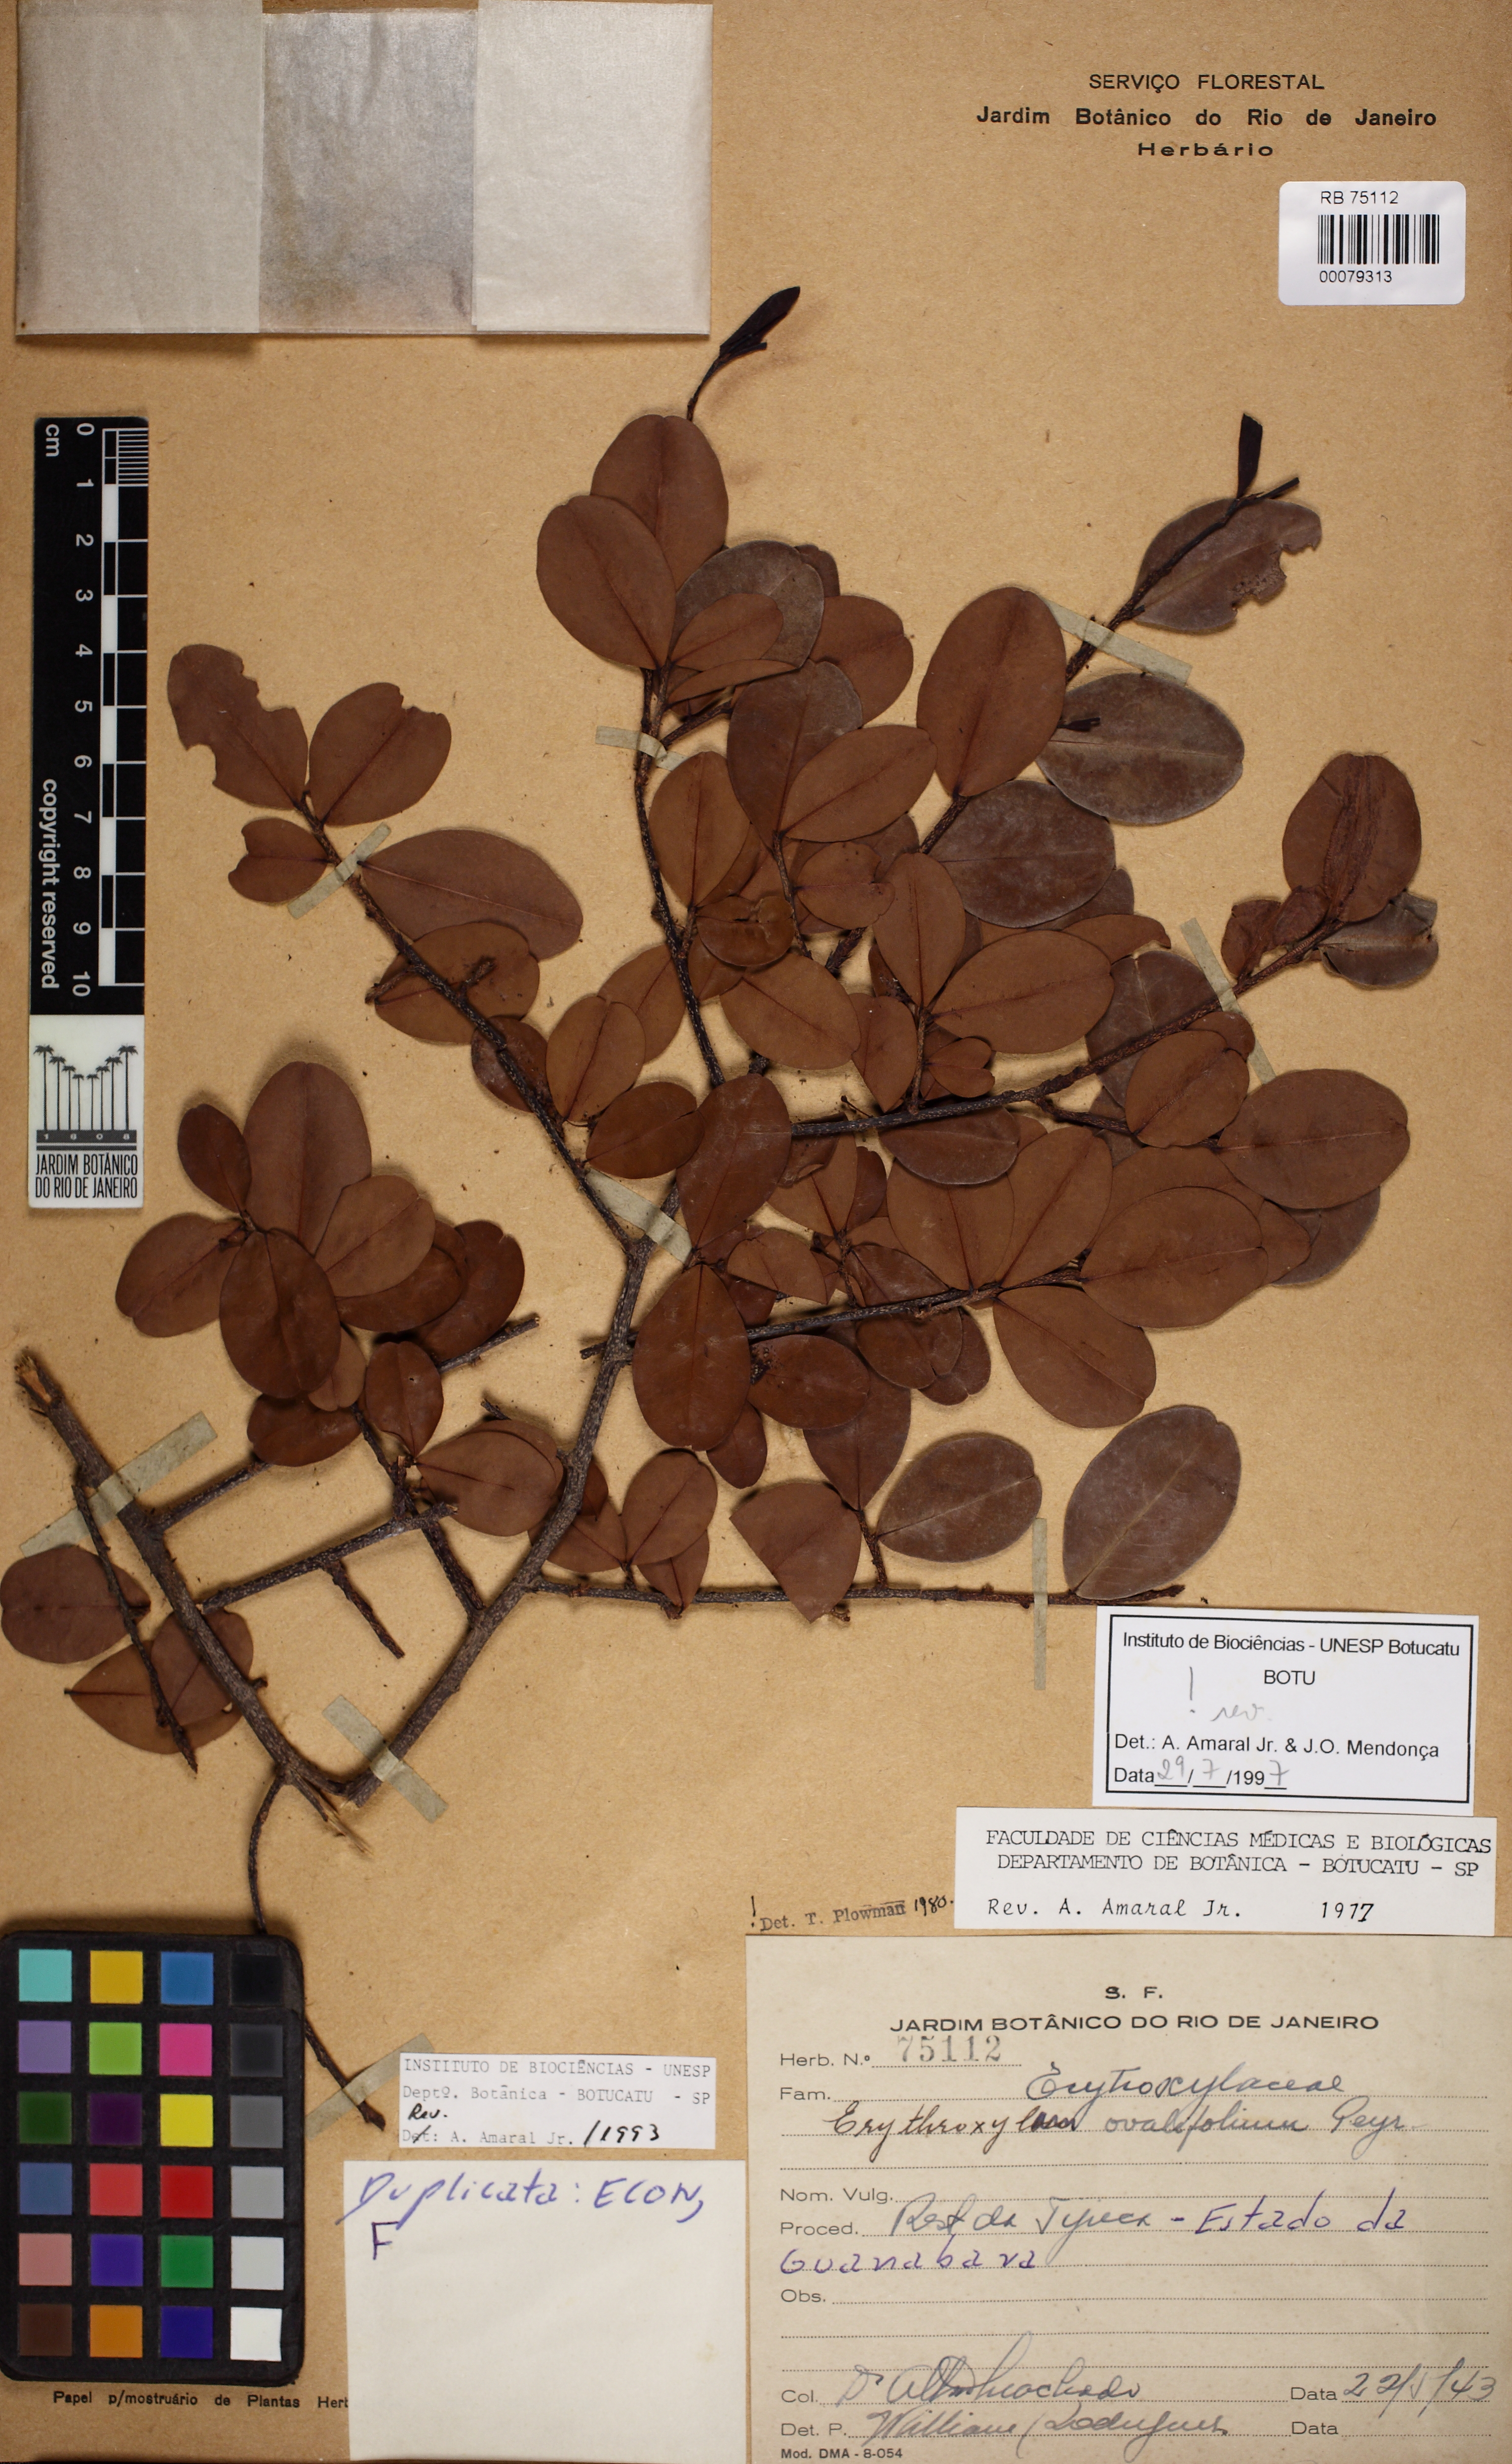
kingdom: Plantae
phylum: Tracheophyta
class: Magnoliopsida
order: Malpighiales
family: Erythroxylaceae
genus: Erythroxylum
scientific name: Erythroxylum ovalifolium
